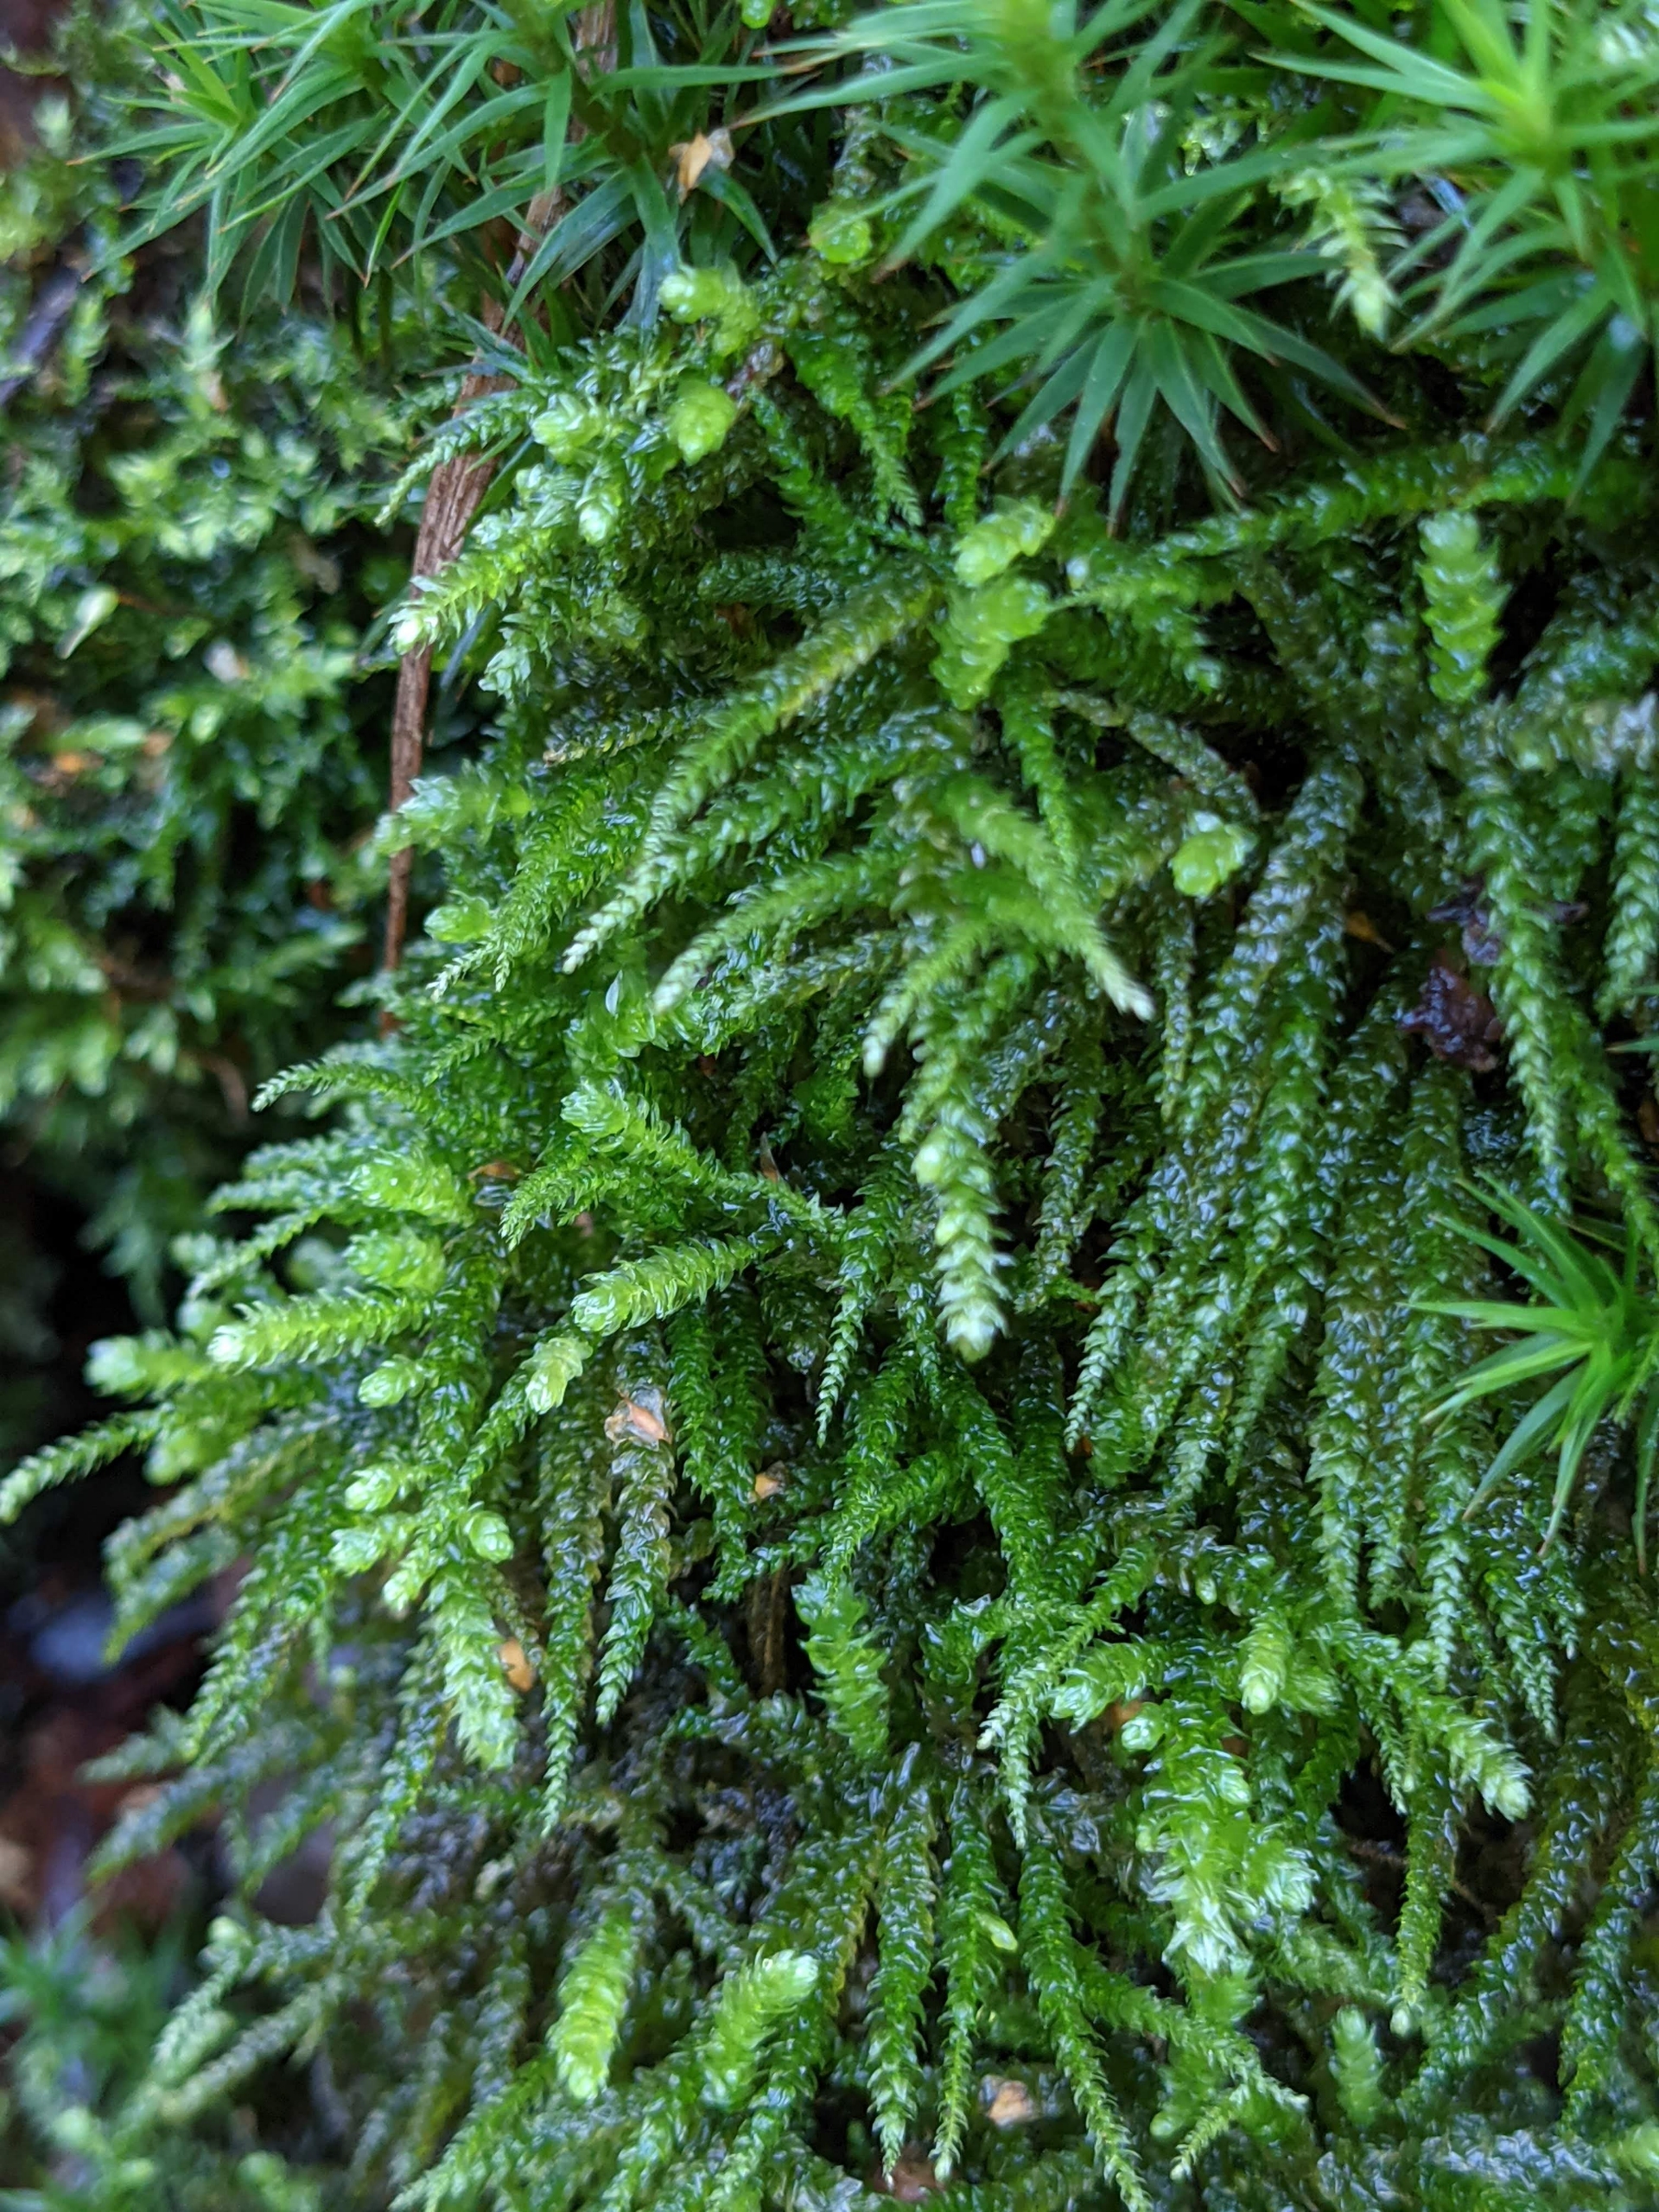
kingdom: Plantae
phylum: Bryophyta
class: Bryopsida
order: Hypnales
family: Brachytheciaceae
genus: Eurhynchium
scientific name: Eurhynchium angustirete
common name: Stor næbmos
